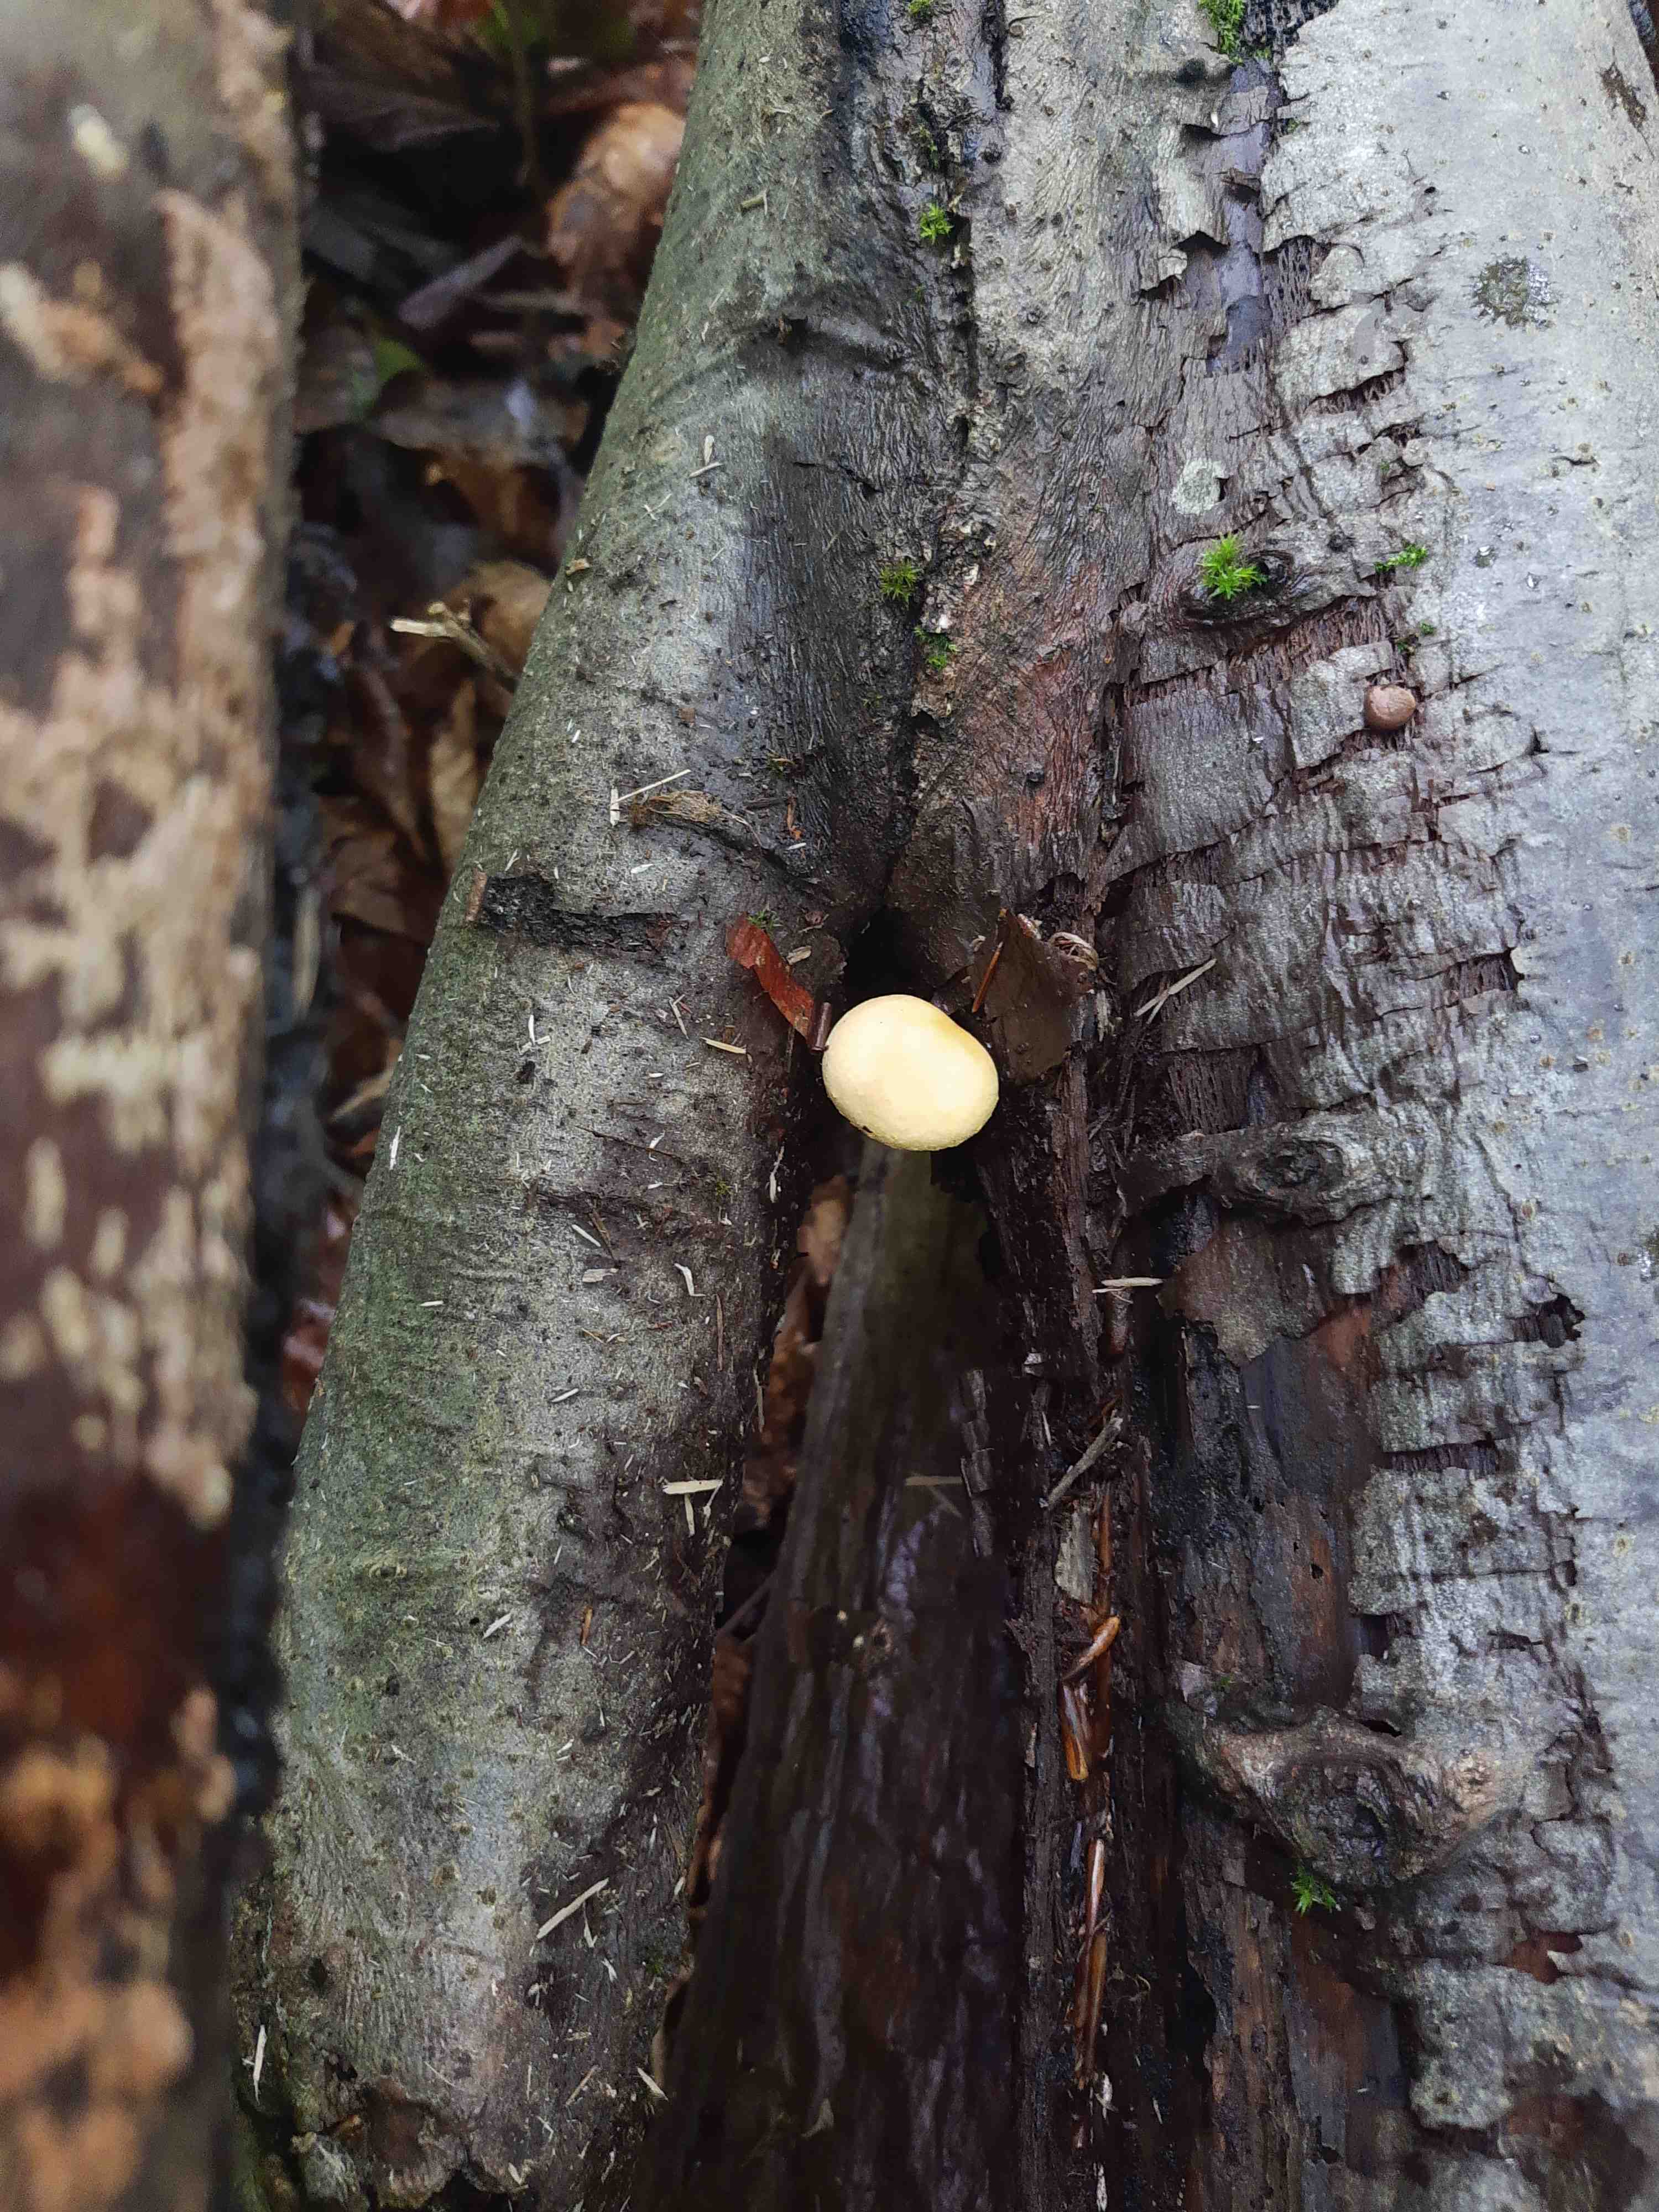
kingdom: Fungi
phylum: Basidiomycota
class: Agaricomycetes
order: Agaricales
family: Strophariaceae
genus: Pholiota
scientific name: Pholiota tuberculosa
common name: finskællet skælhat
